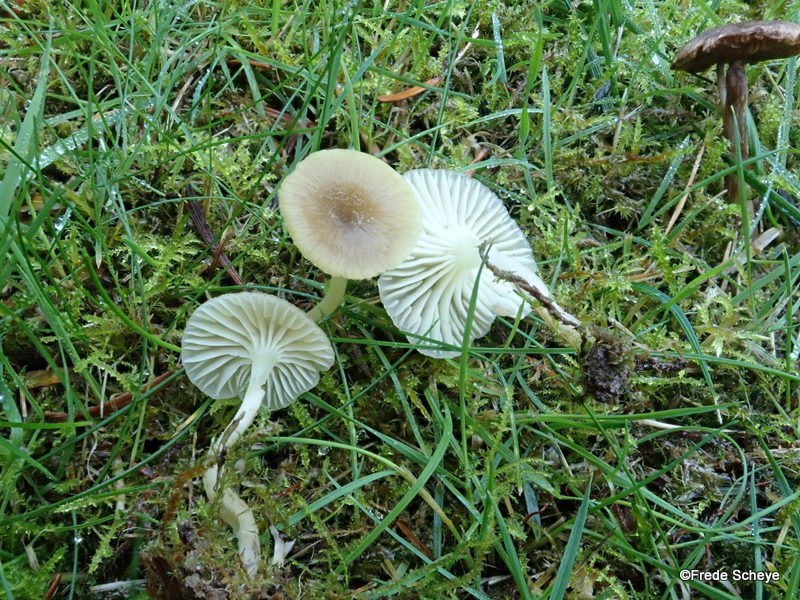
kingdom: Fungi
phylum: Basidiomycota
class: Agaricomycetes
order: Agaricales
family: Hygrophoraceae
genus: Chrysomphalina
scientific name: Chrysomphalina grossula
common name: stød-gyldenblad
